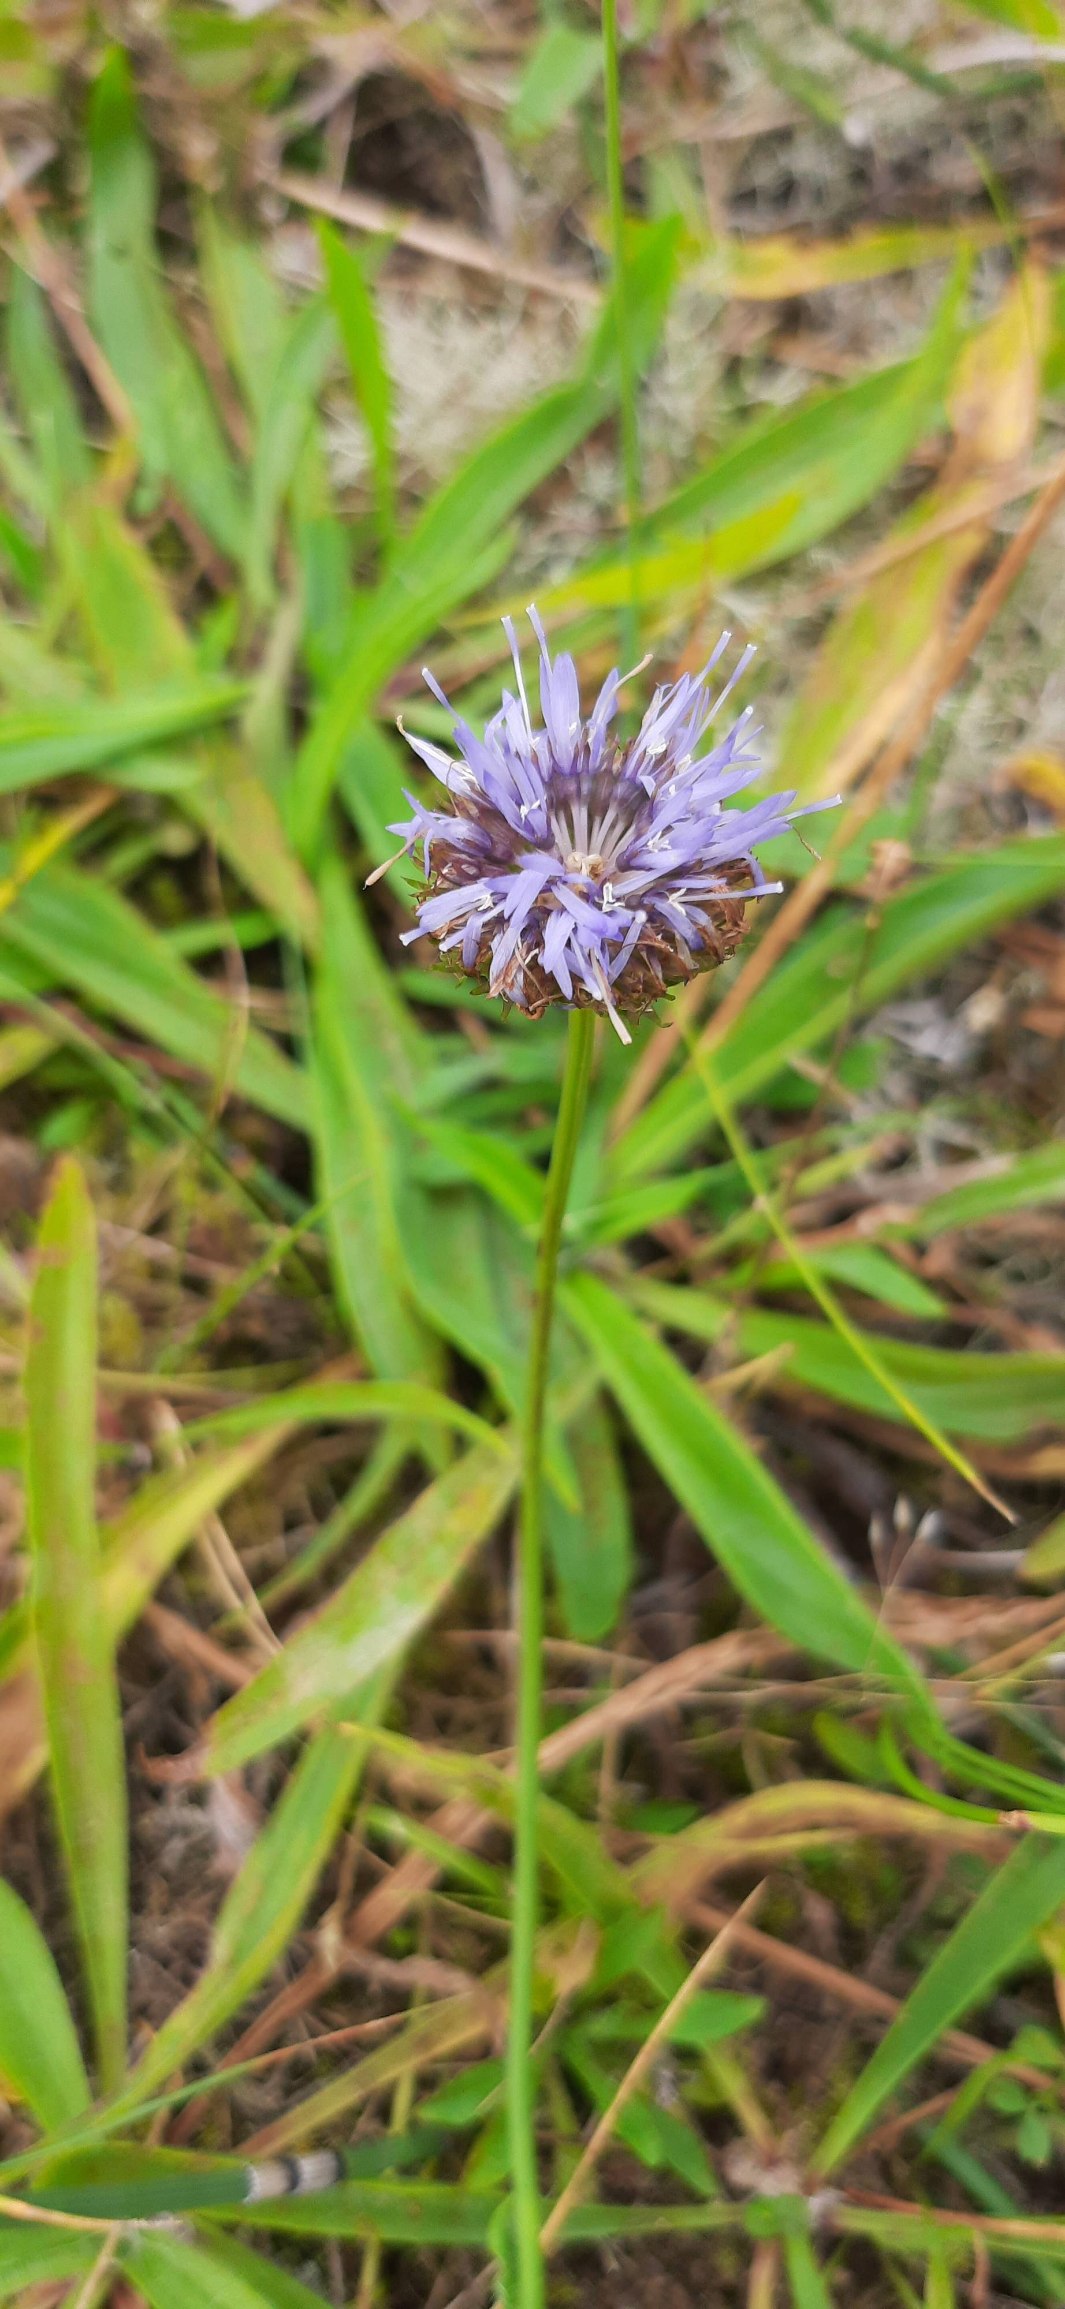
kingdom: Plantae
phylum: Tracheophyta
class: Magnoliopsida
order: Asterales
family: Campanulaceae
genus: Jasione
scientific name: Jasione montana
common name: Blåmunke
